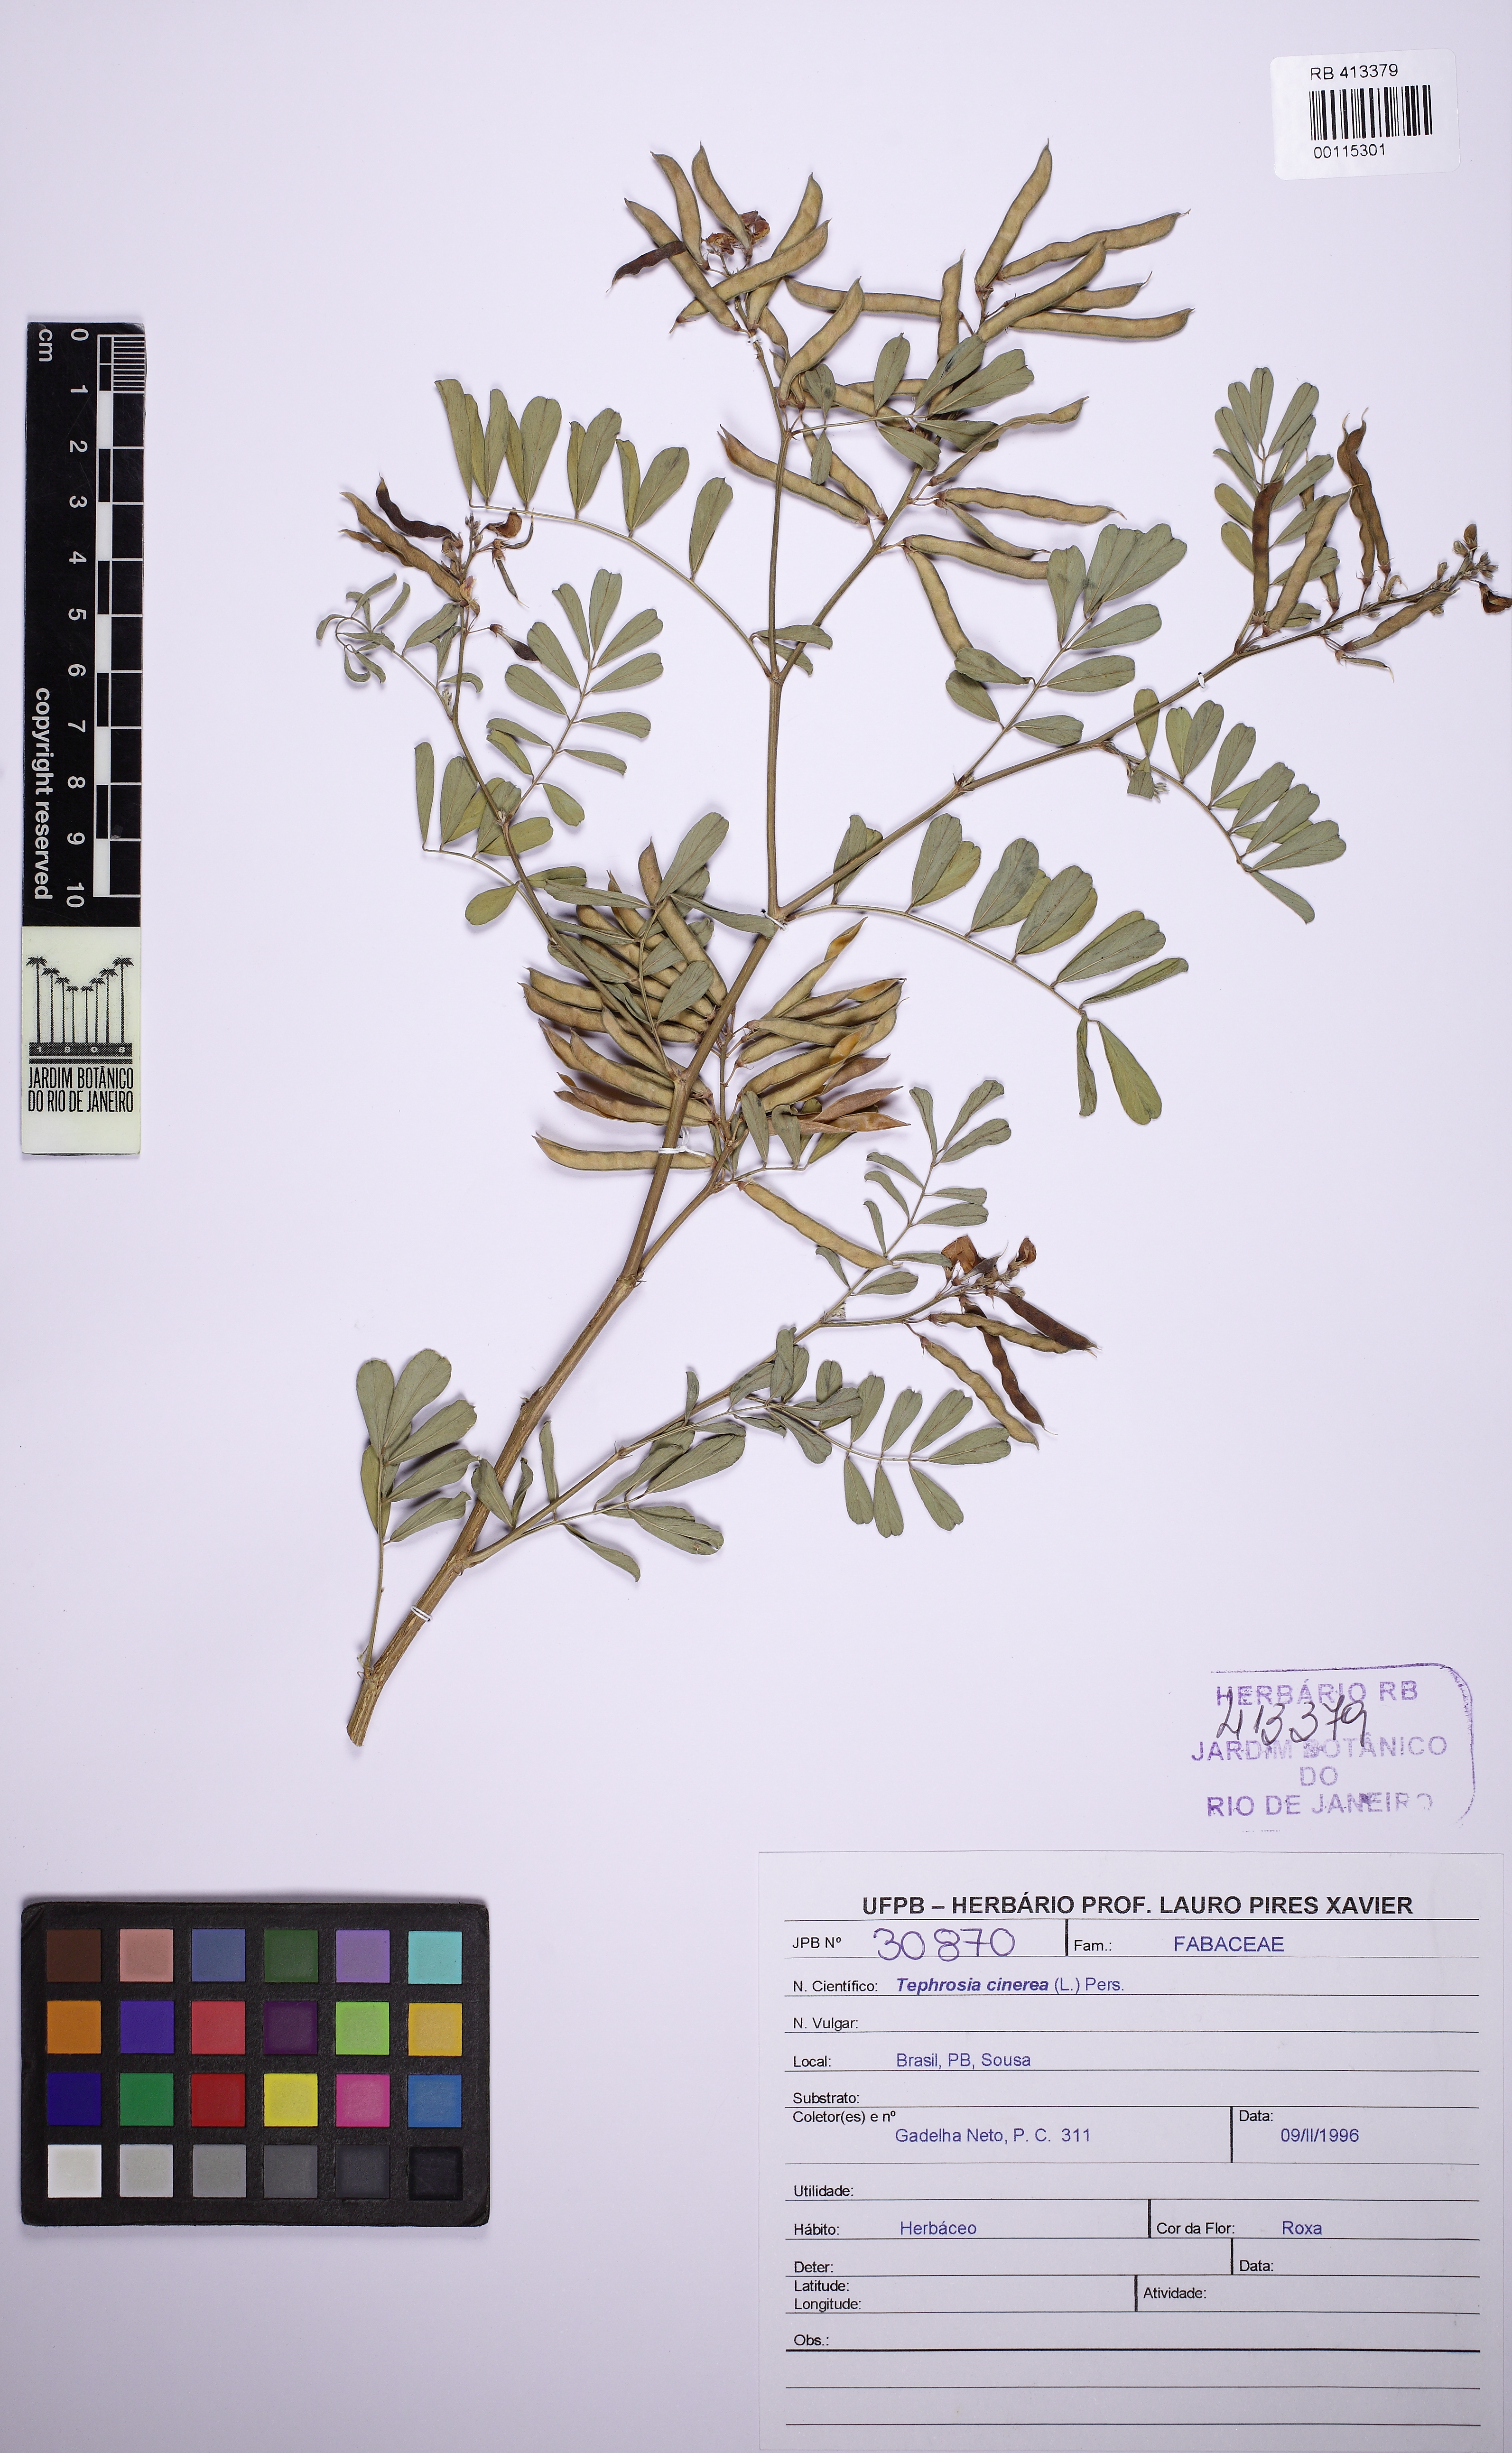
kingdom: Plantae
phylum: Tracheophyta
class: Magnoliopsida
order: Fabales
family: Fabaceae
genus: Tephrosia
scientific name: Tephrosia cinerea
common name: Ashen hoarypea
